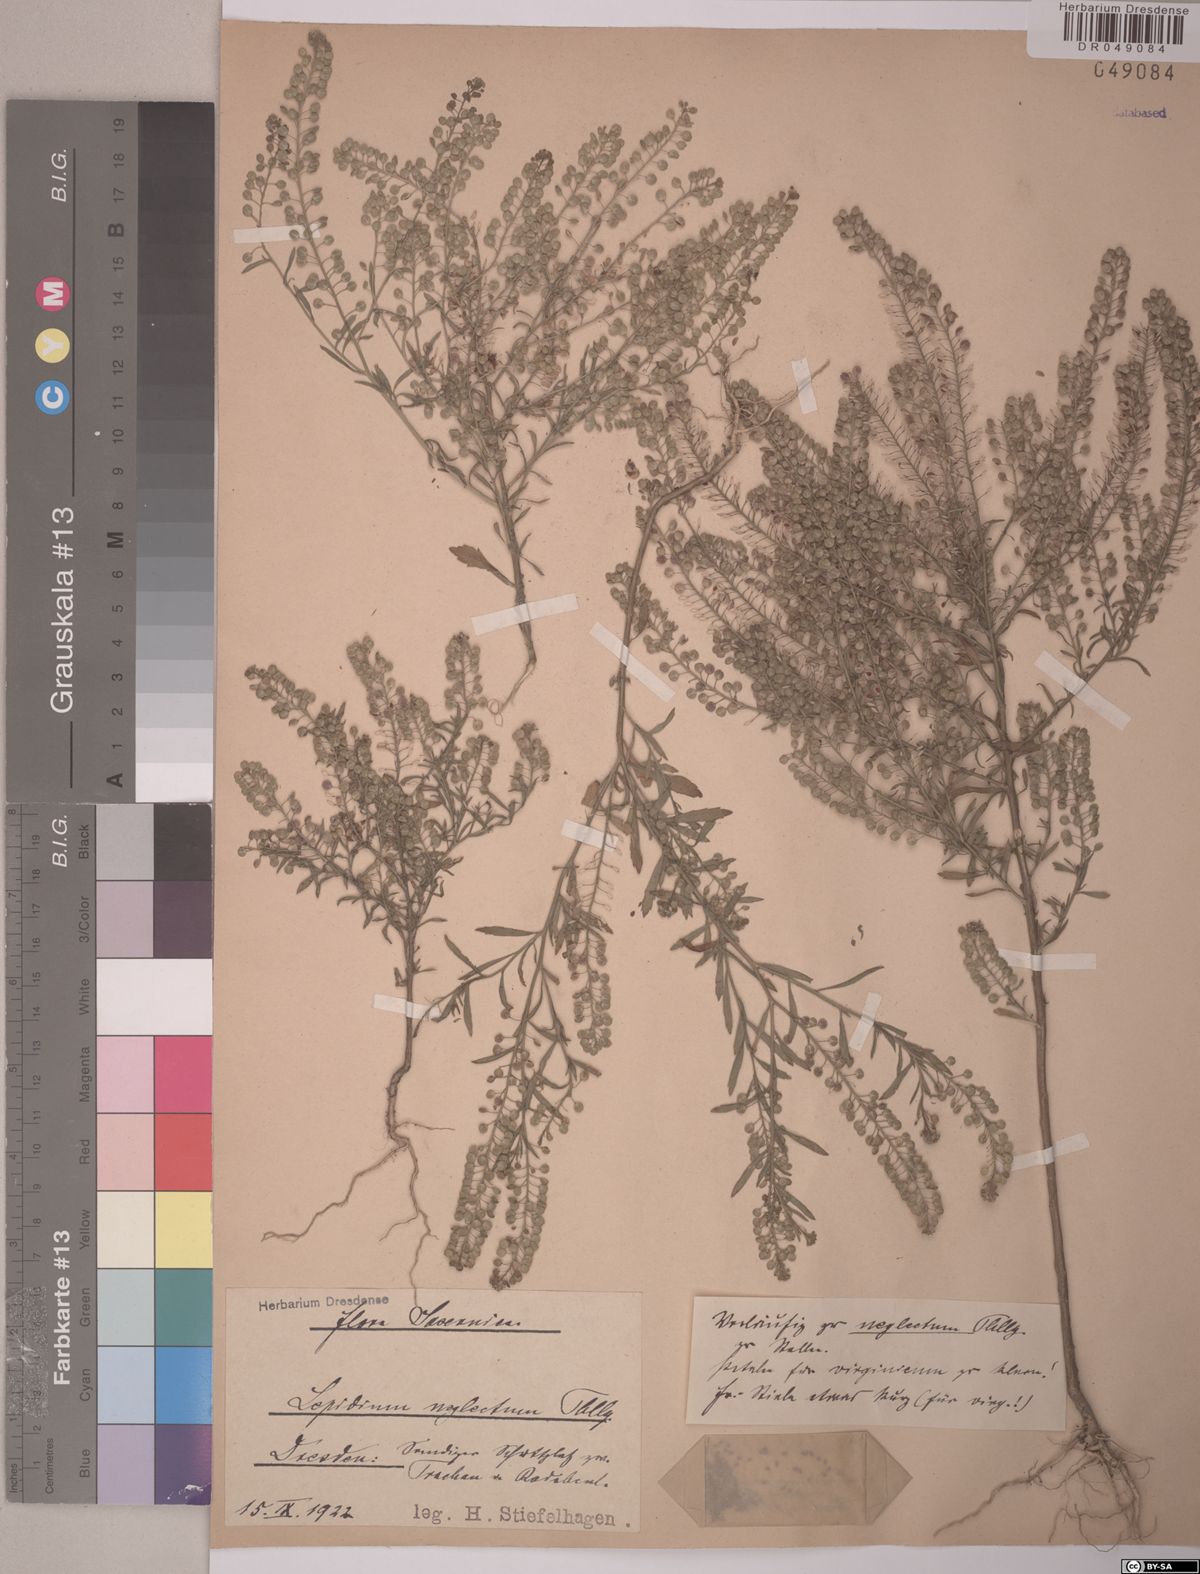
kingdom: Plantae
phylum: Tracheophyta
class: Magnoliopsida
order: Brassicales
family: Brassicaceae
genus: Lepidium
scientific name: Lepidium densiflorum
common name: Miner's pepperwort
